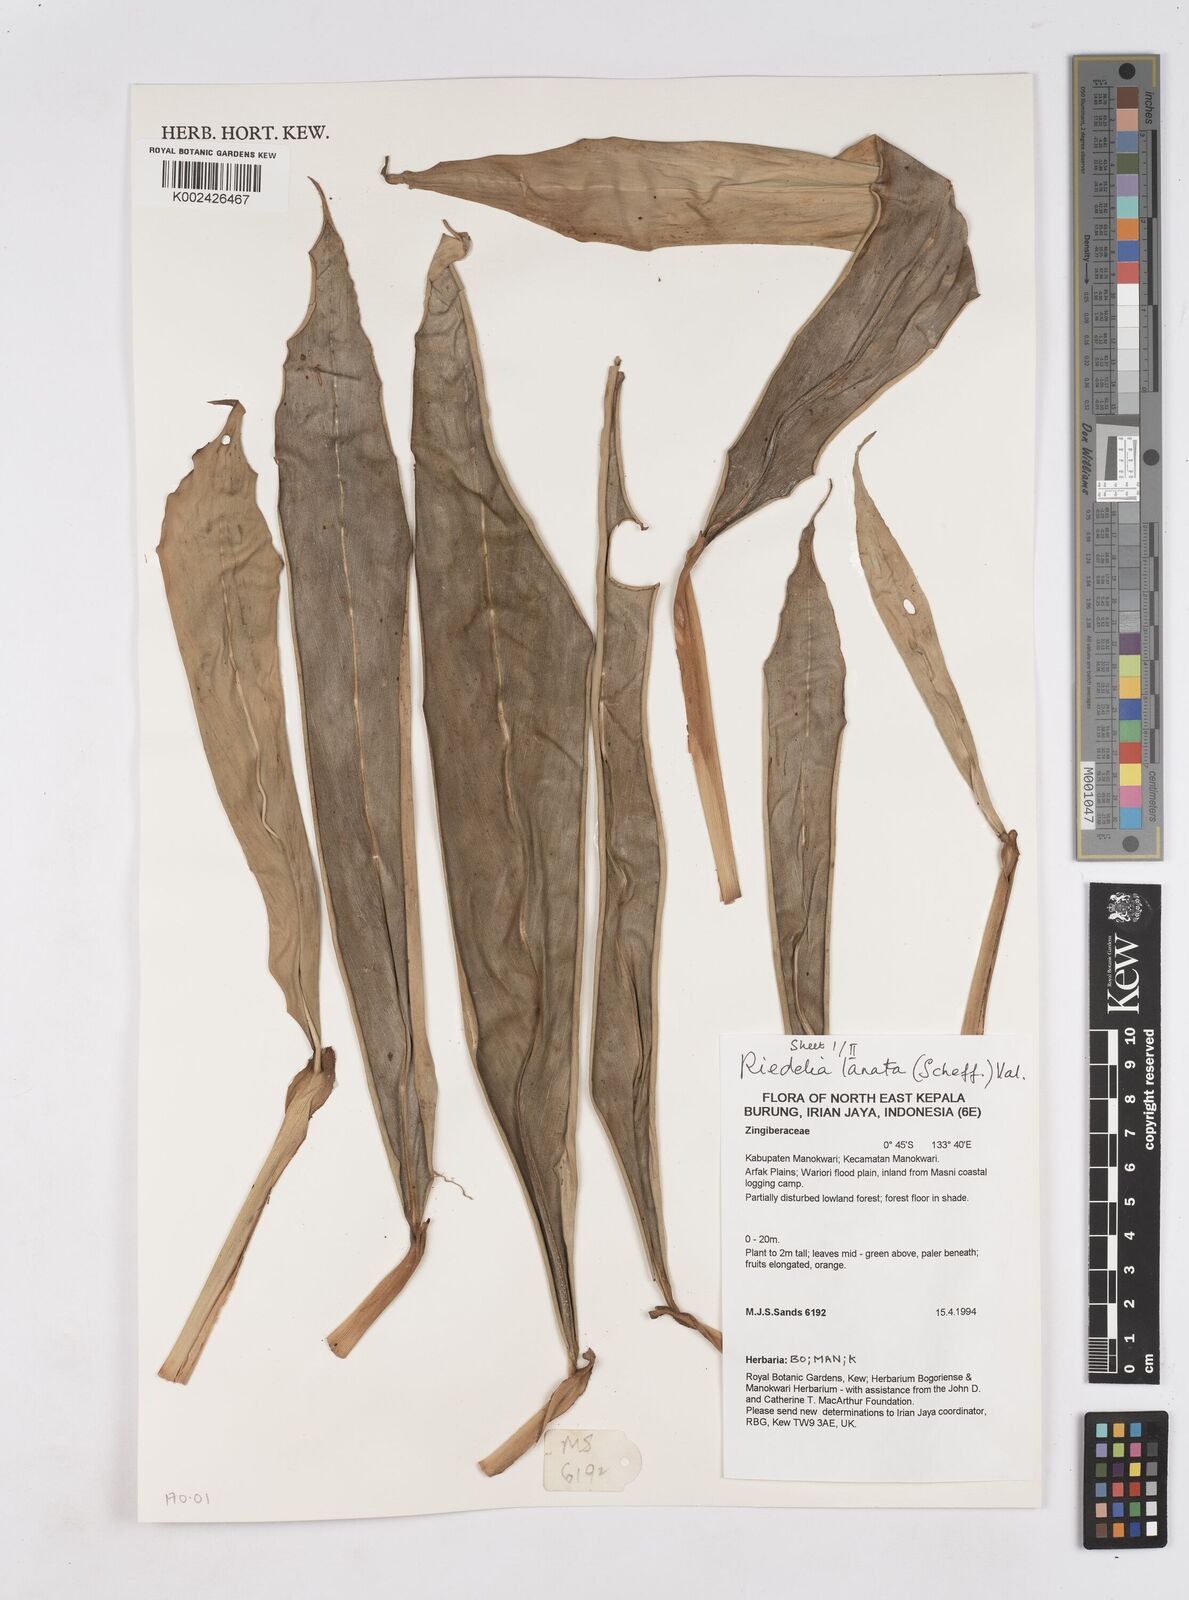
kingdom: Plantae
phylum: Tracheophyta
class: Liliopsida
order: Zingiberales
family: Zingiberaceae
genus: Riedelia
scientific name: Riedelia lanata
